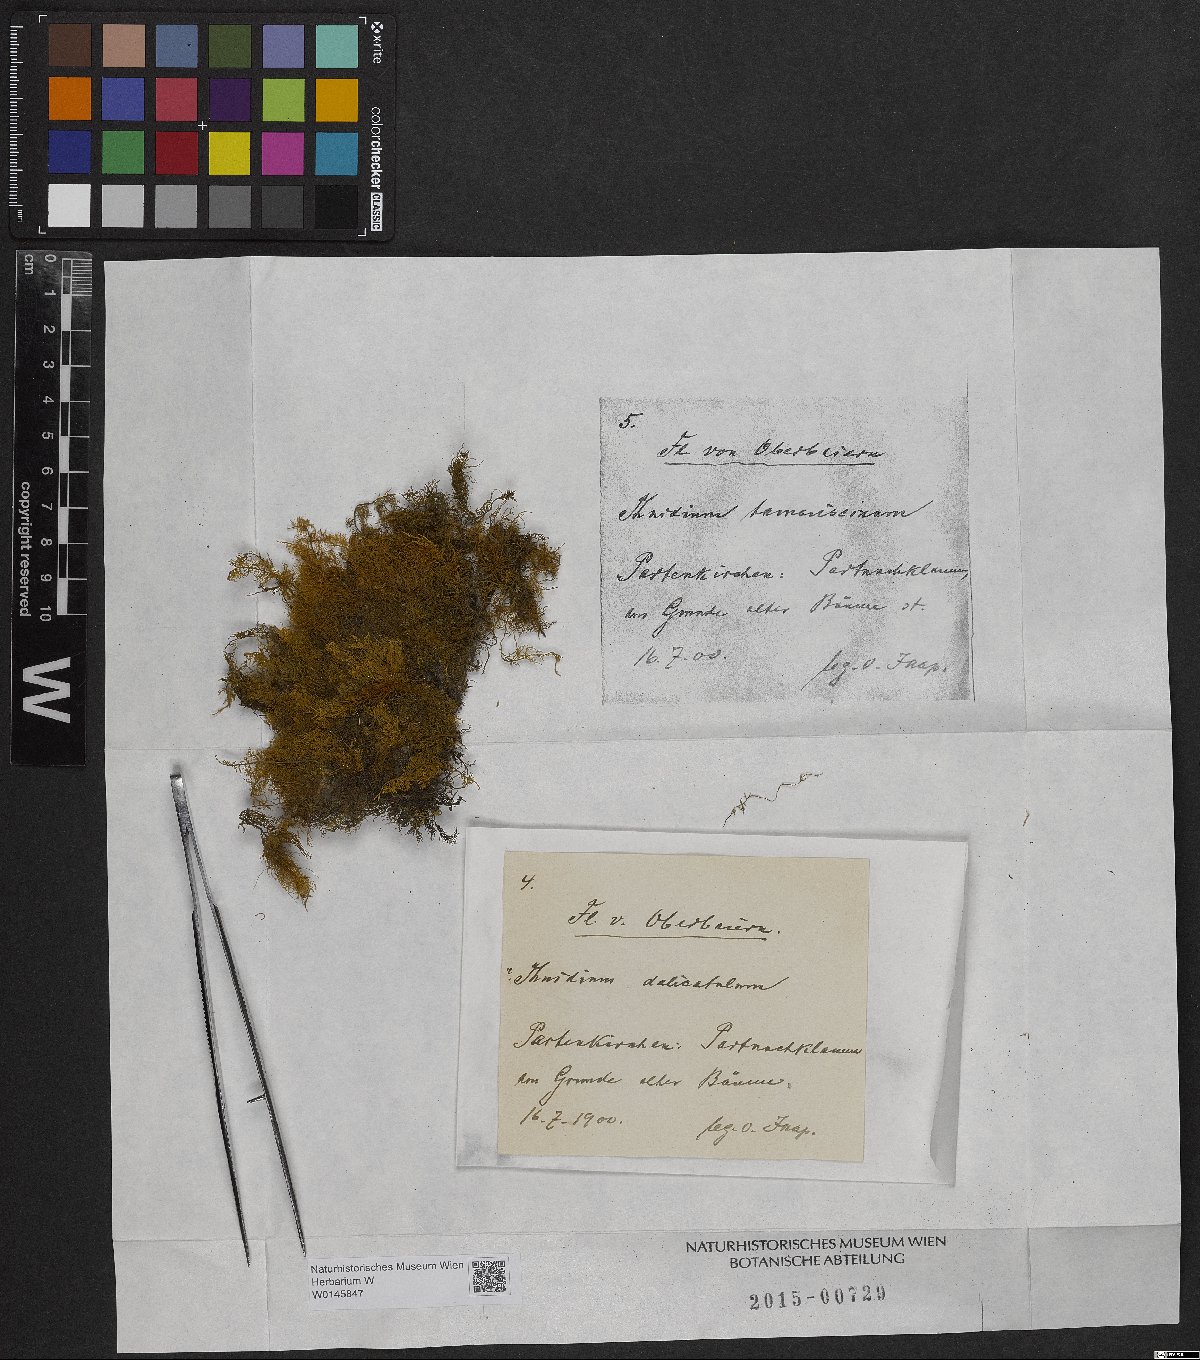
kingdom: Plantae
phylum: Bryophyta
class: Bryopsida
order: Hypnales
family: Thuidiaceae
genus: Thuidium
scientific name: Thuidium tamariscinum
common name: Common tamarisk-moss
